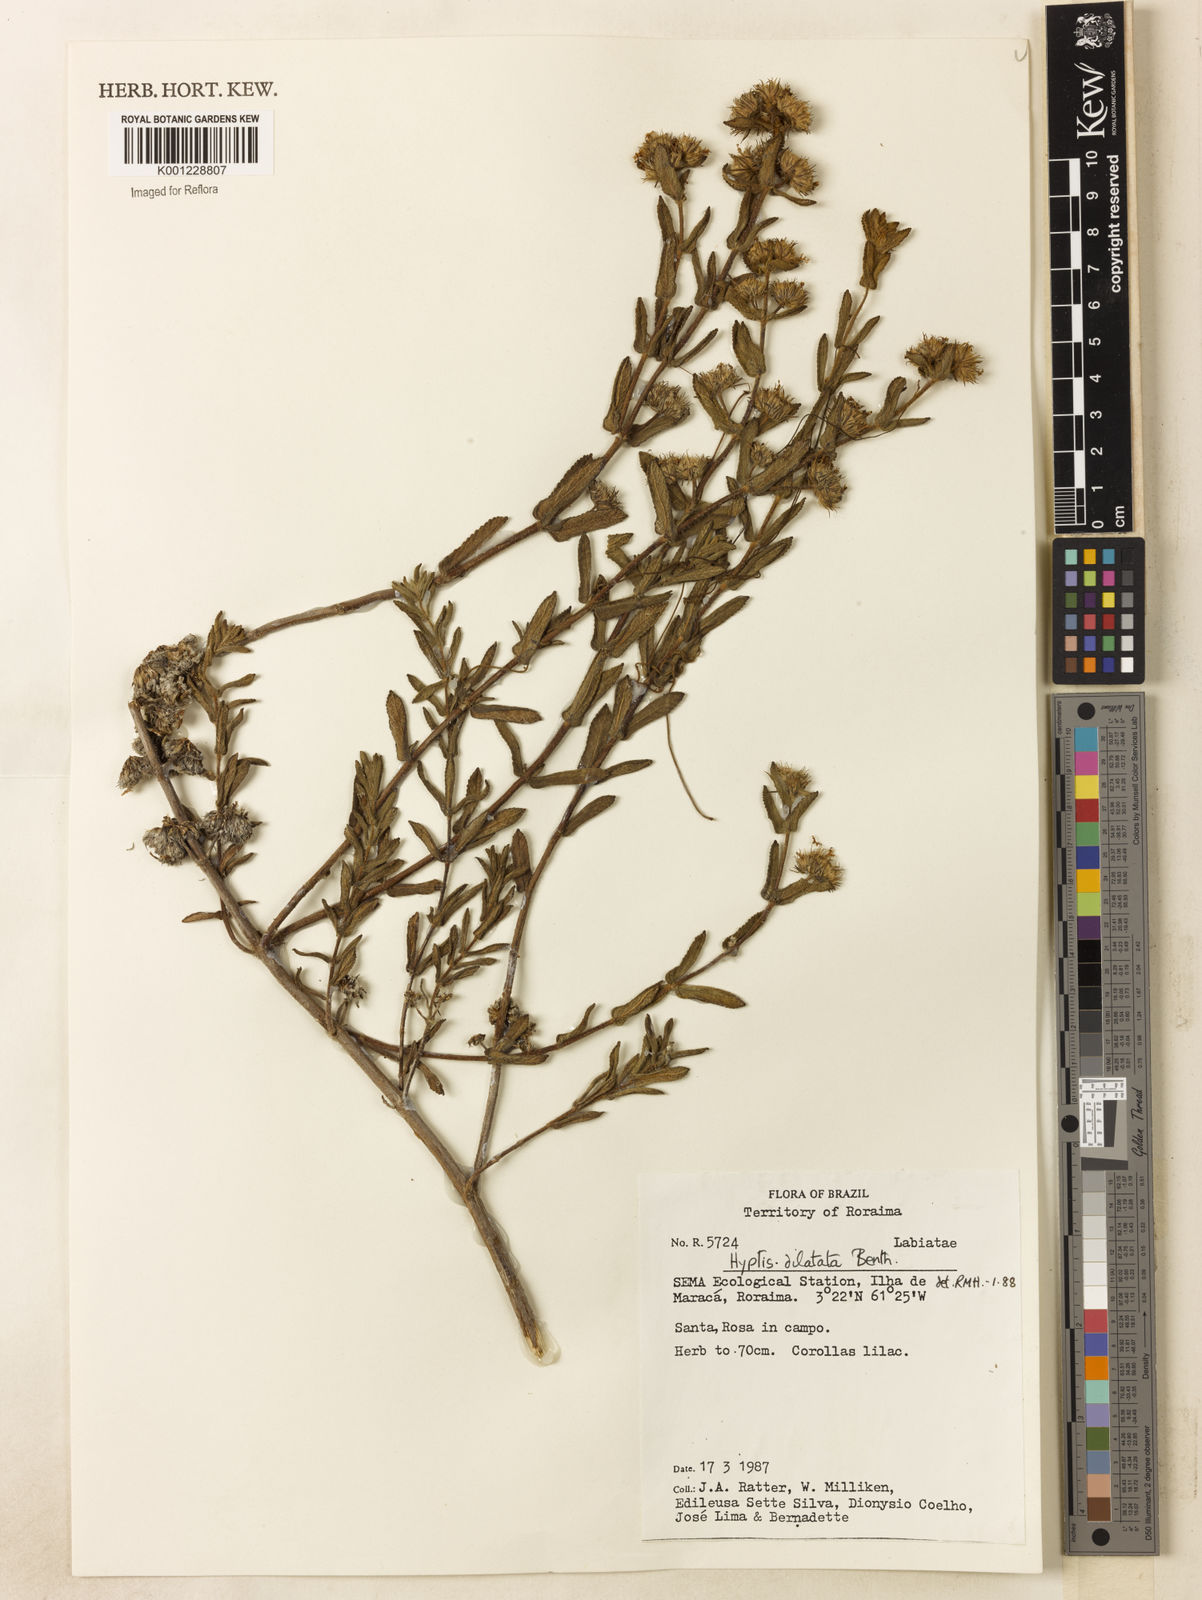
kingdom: Plantae
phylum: Tracheophyta
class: Magnoliopsida
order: Lamiales
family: Lamiaceae
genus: Hyptis
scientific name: Hyptis dilatata
